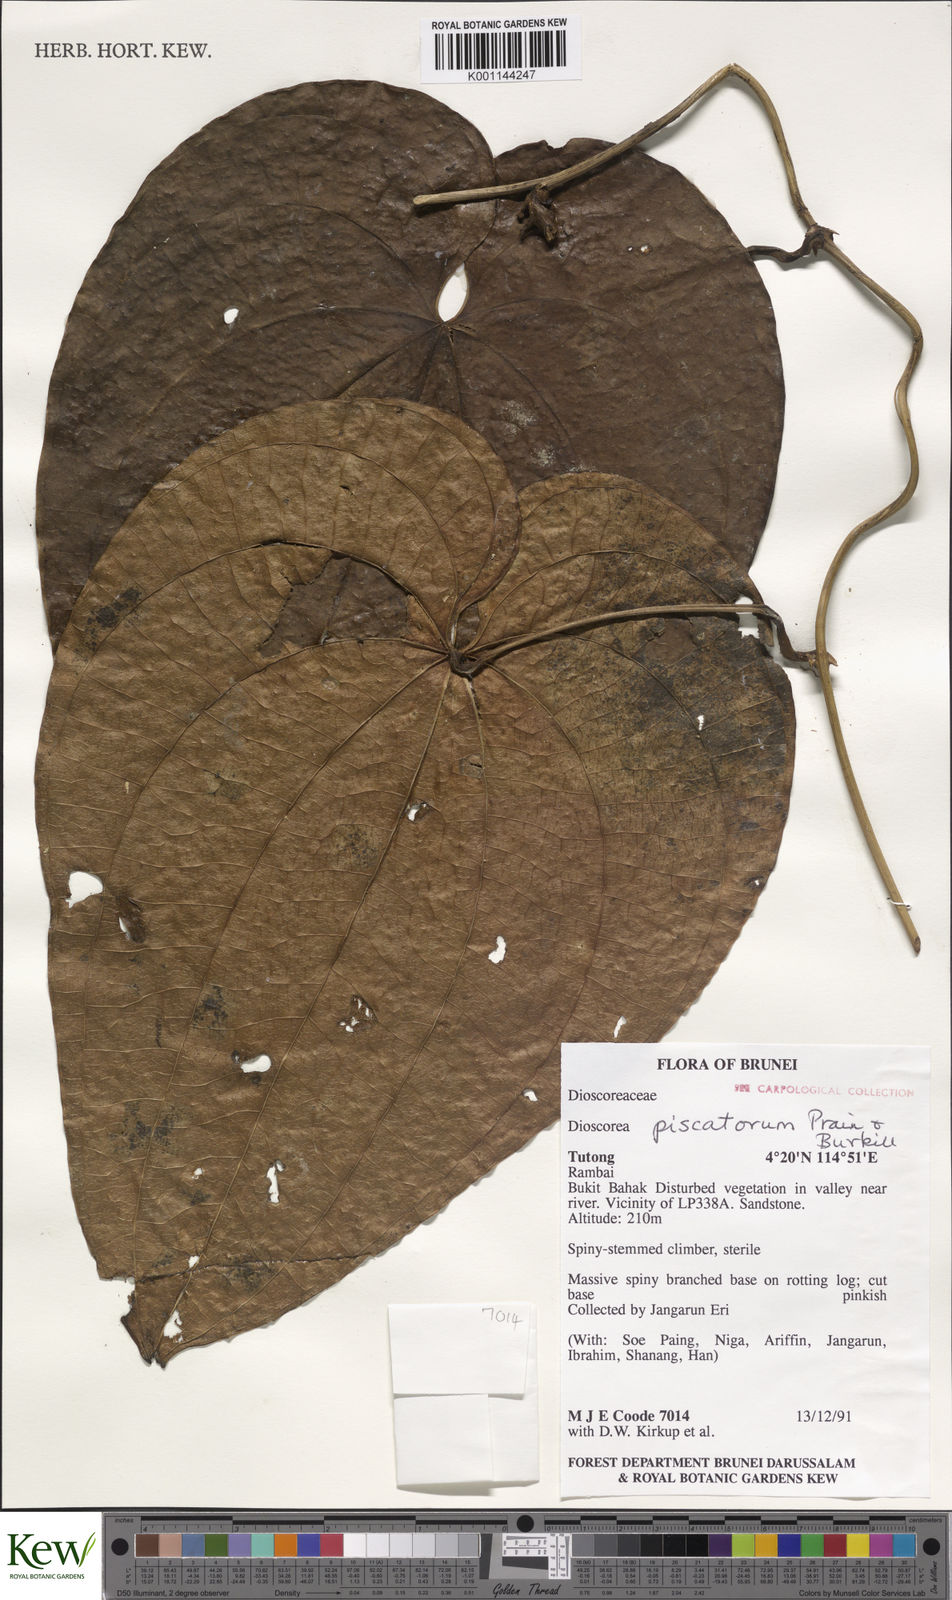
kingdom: Plantae
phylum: Tracheophyta
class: Liliopsida
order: Dioscoreales
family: Dioscoreaceae
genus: Dioscorea
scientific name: Dioscorea piscatorum
